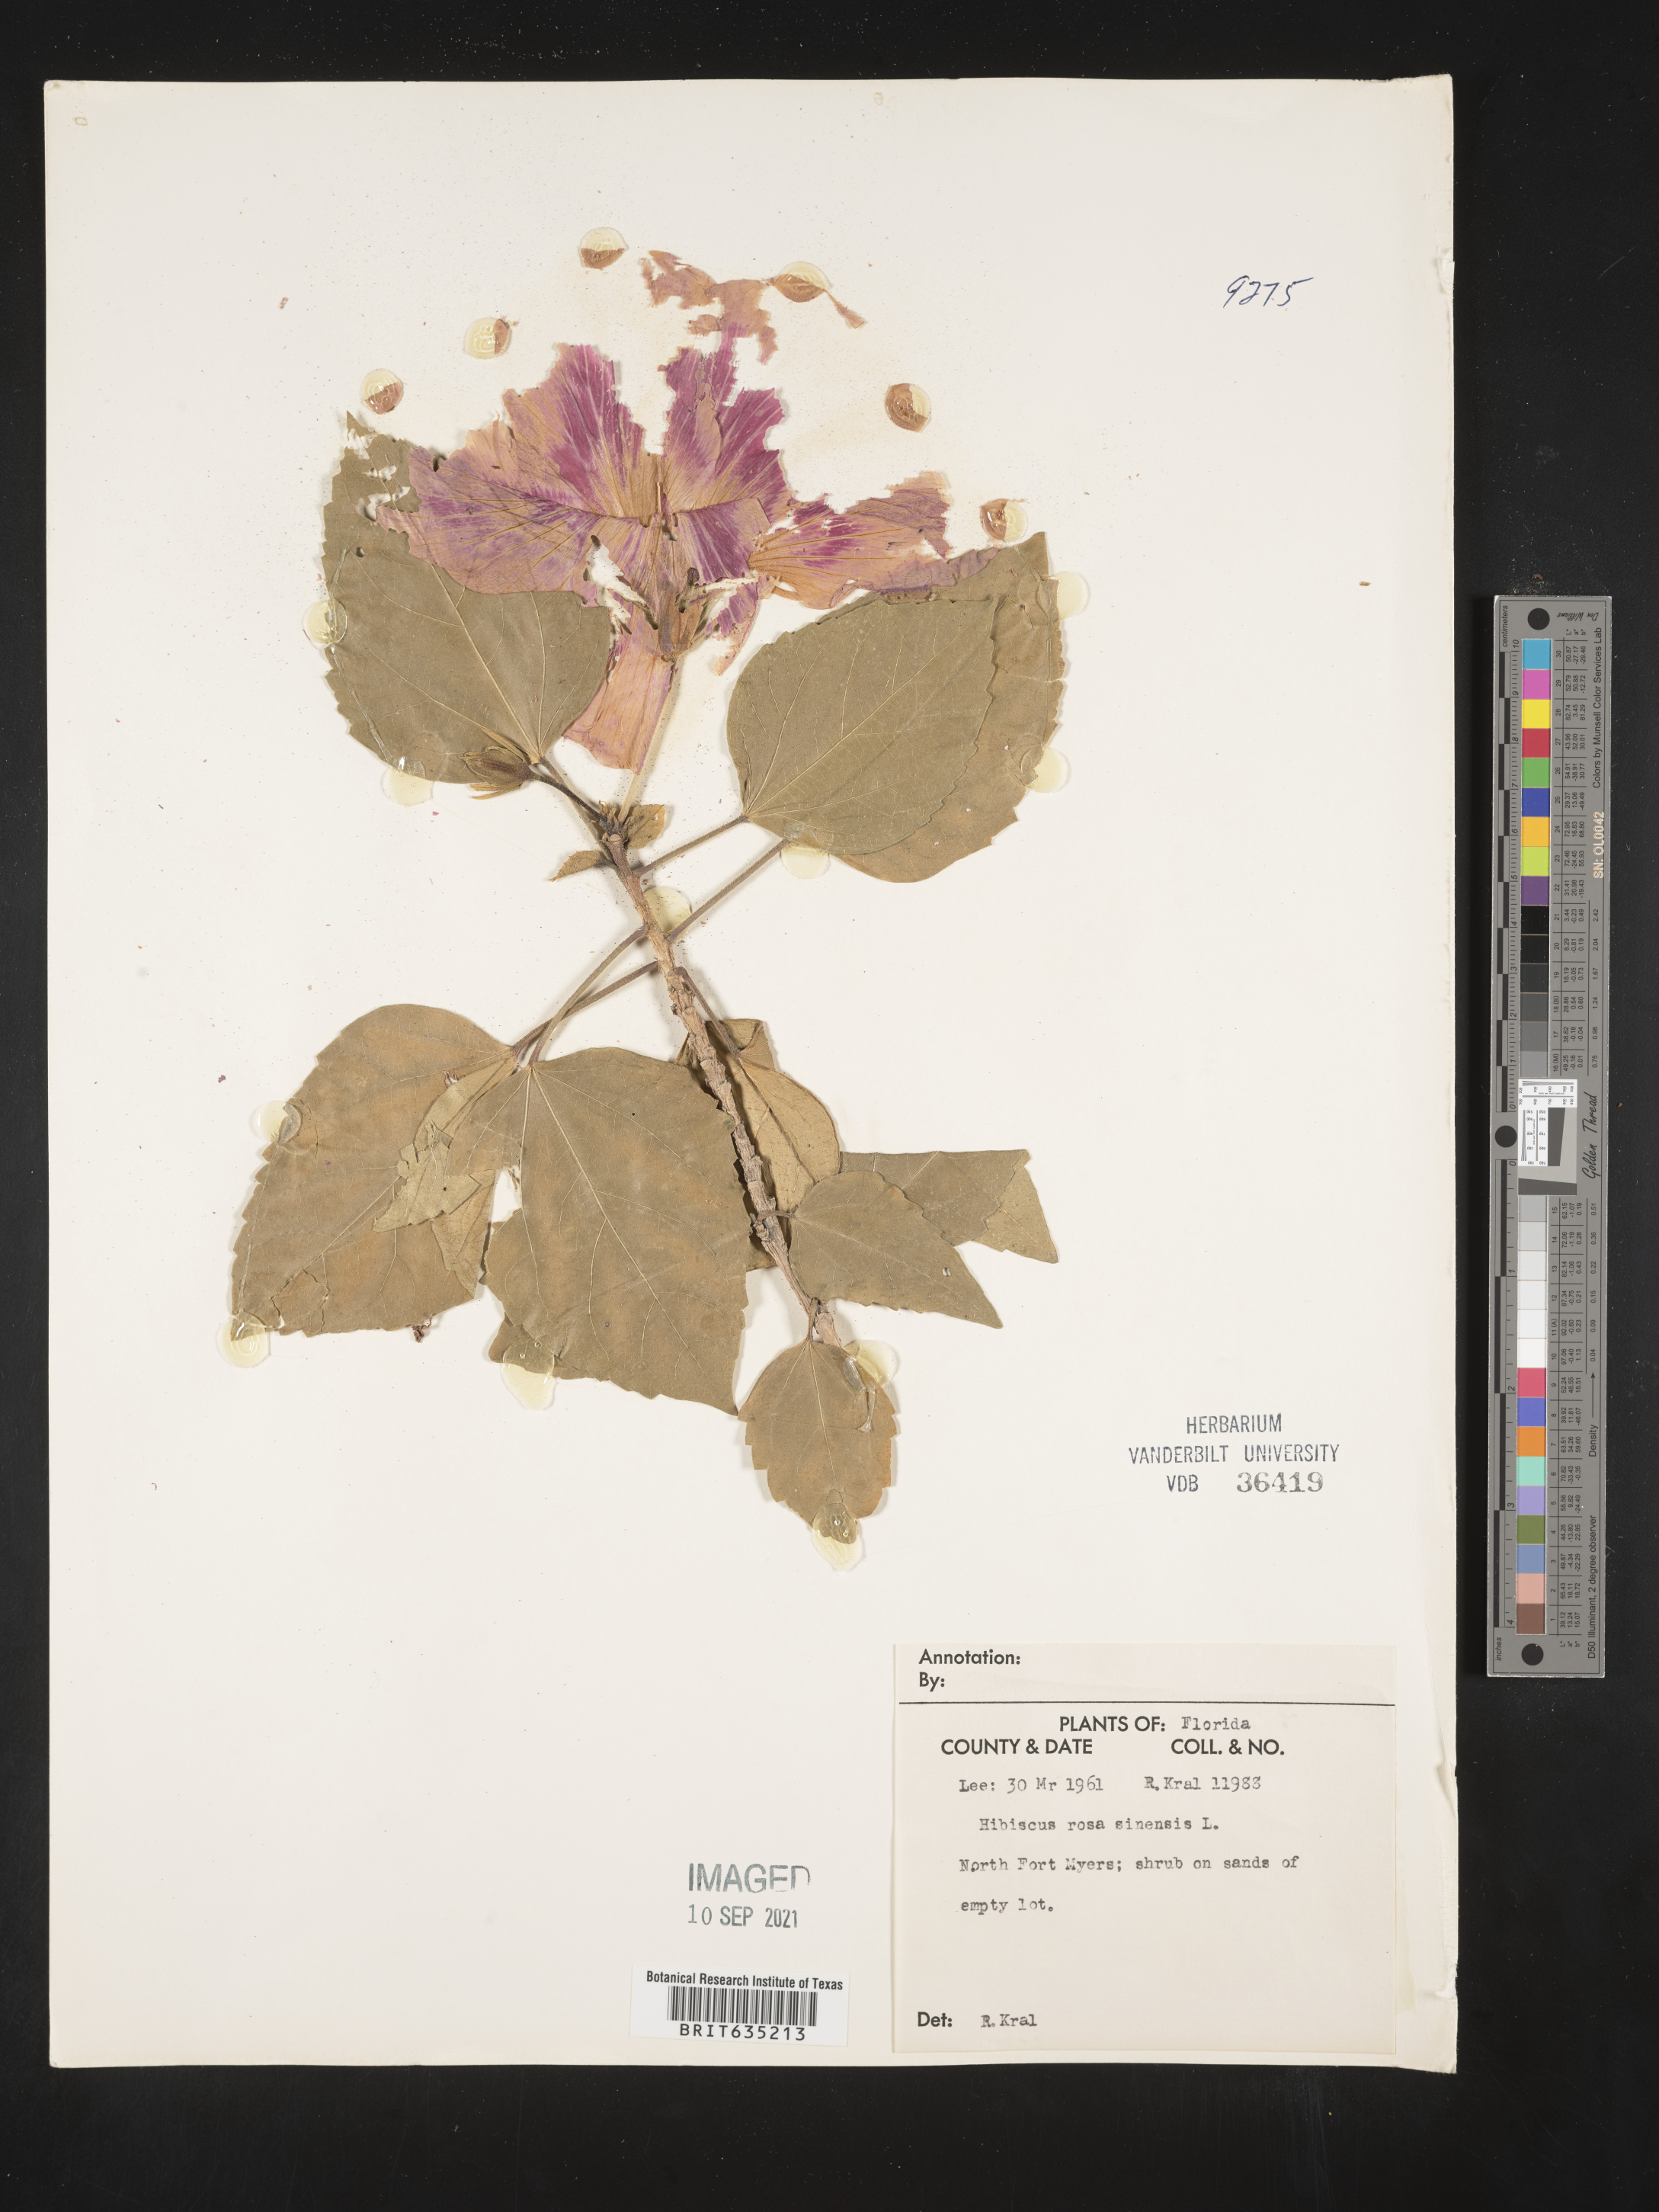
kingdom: Plantae
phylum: Tracheophyta
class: Magnoliopsida
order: Malvales
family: Malvaceae
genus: Hibiscus
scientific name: Hibiscus
